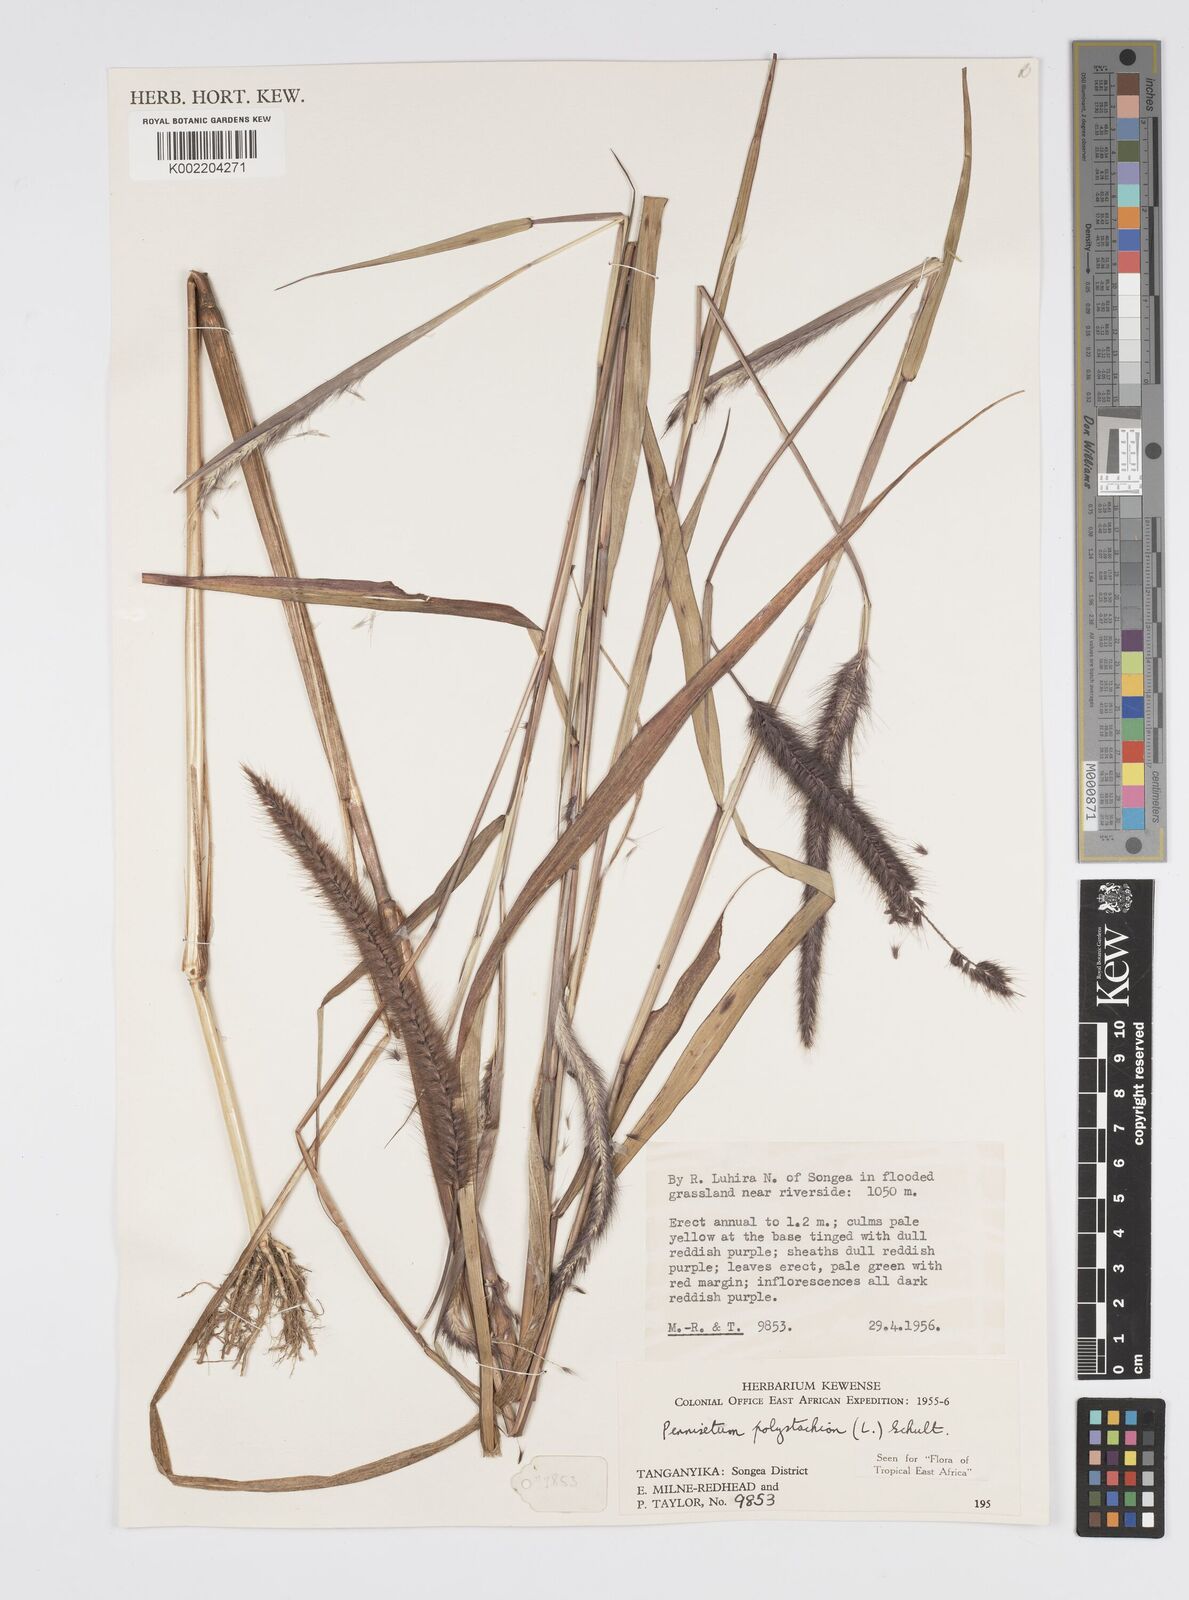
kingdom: Plantae
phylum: Tracheophyta
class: Liliopsida
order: Poales
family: Poaceae
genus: Setaria
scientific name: Setaria parviflora
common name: Knotroot bristle-grass
